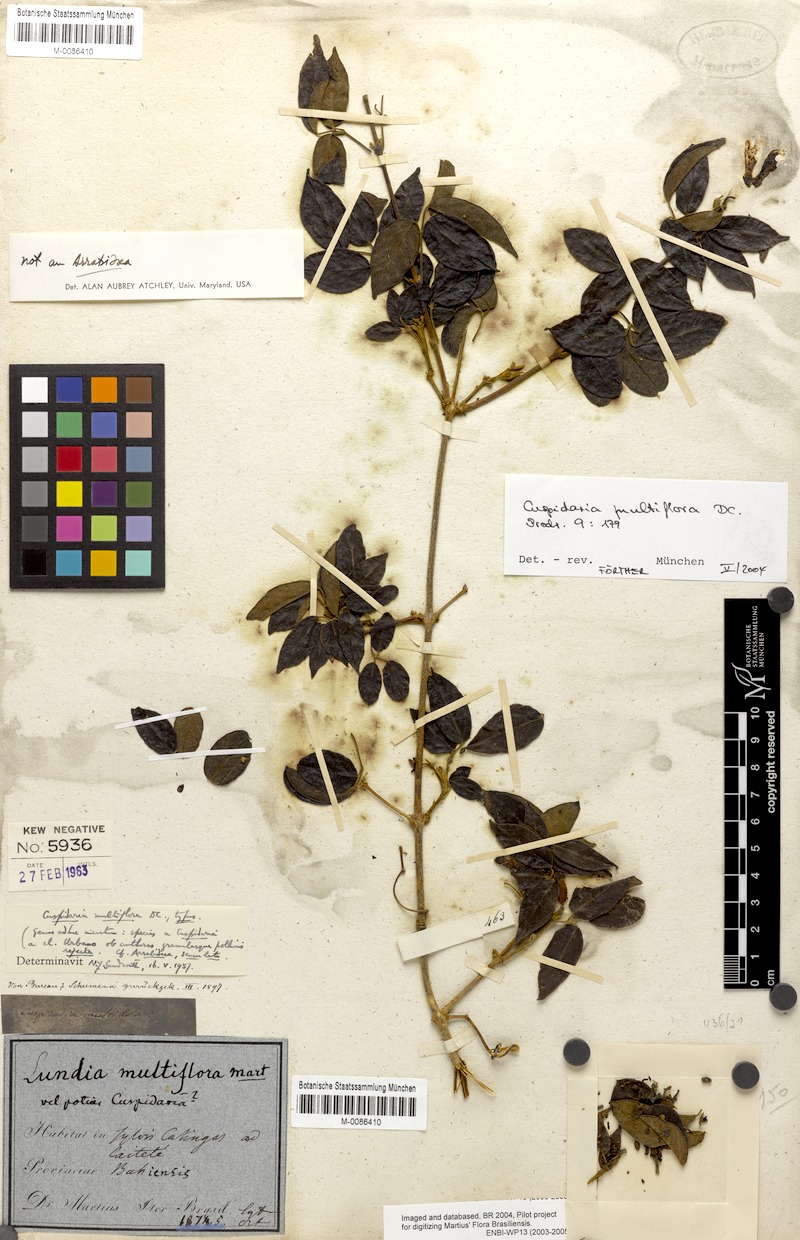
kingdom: Plantae
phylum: Tracheophyta
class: Magnoliopsida
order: Lamiales
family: Bignoniaceae
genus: Cuspidaria
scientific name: Cuspidaria multiflora
